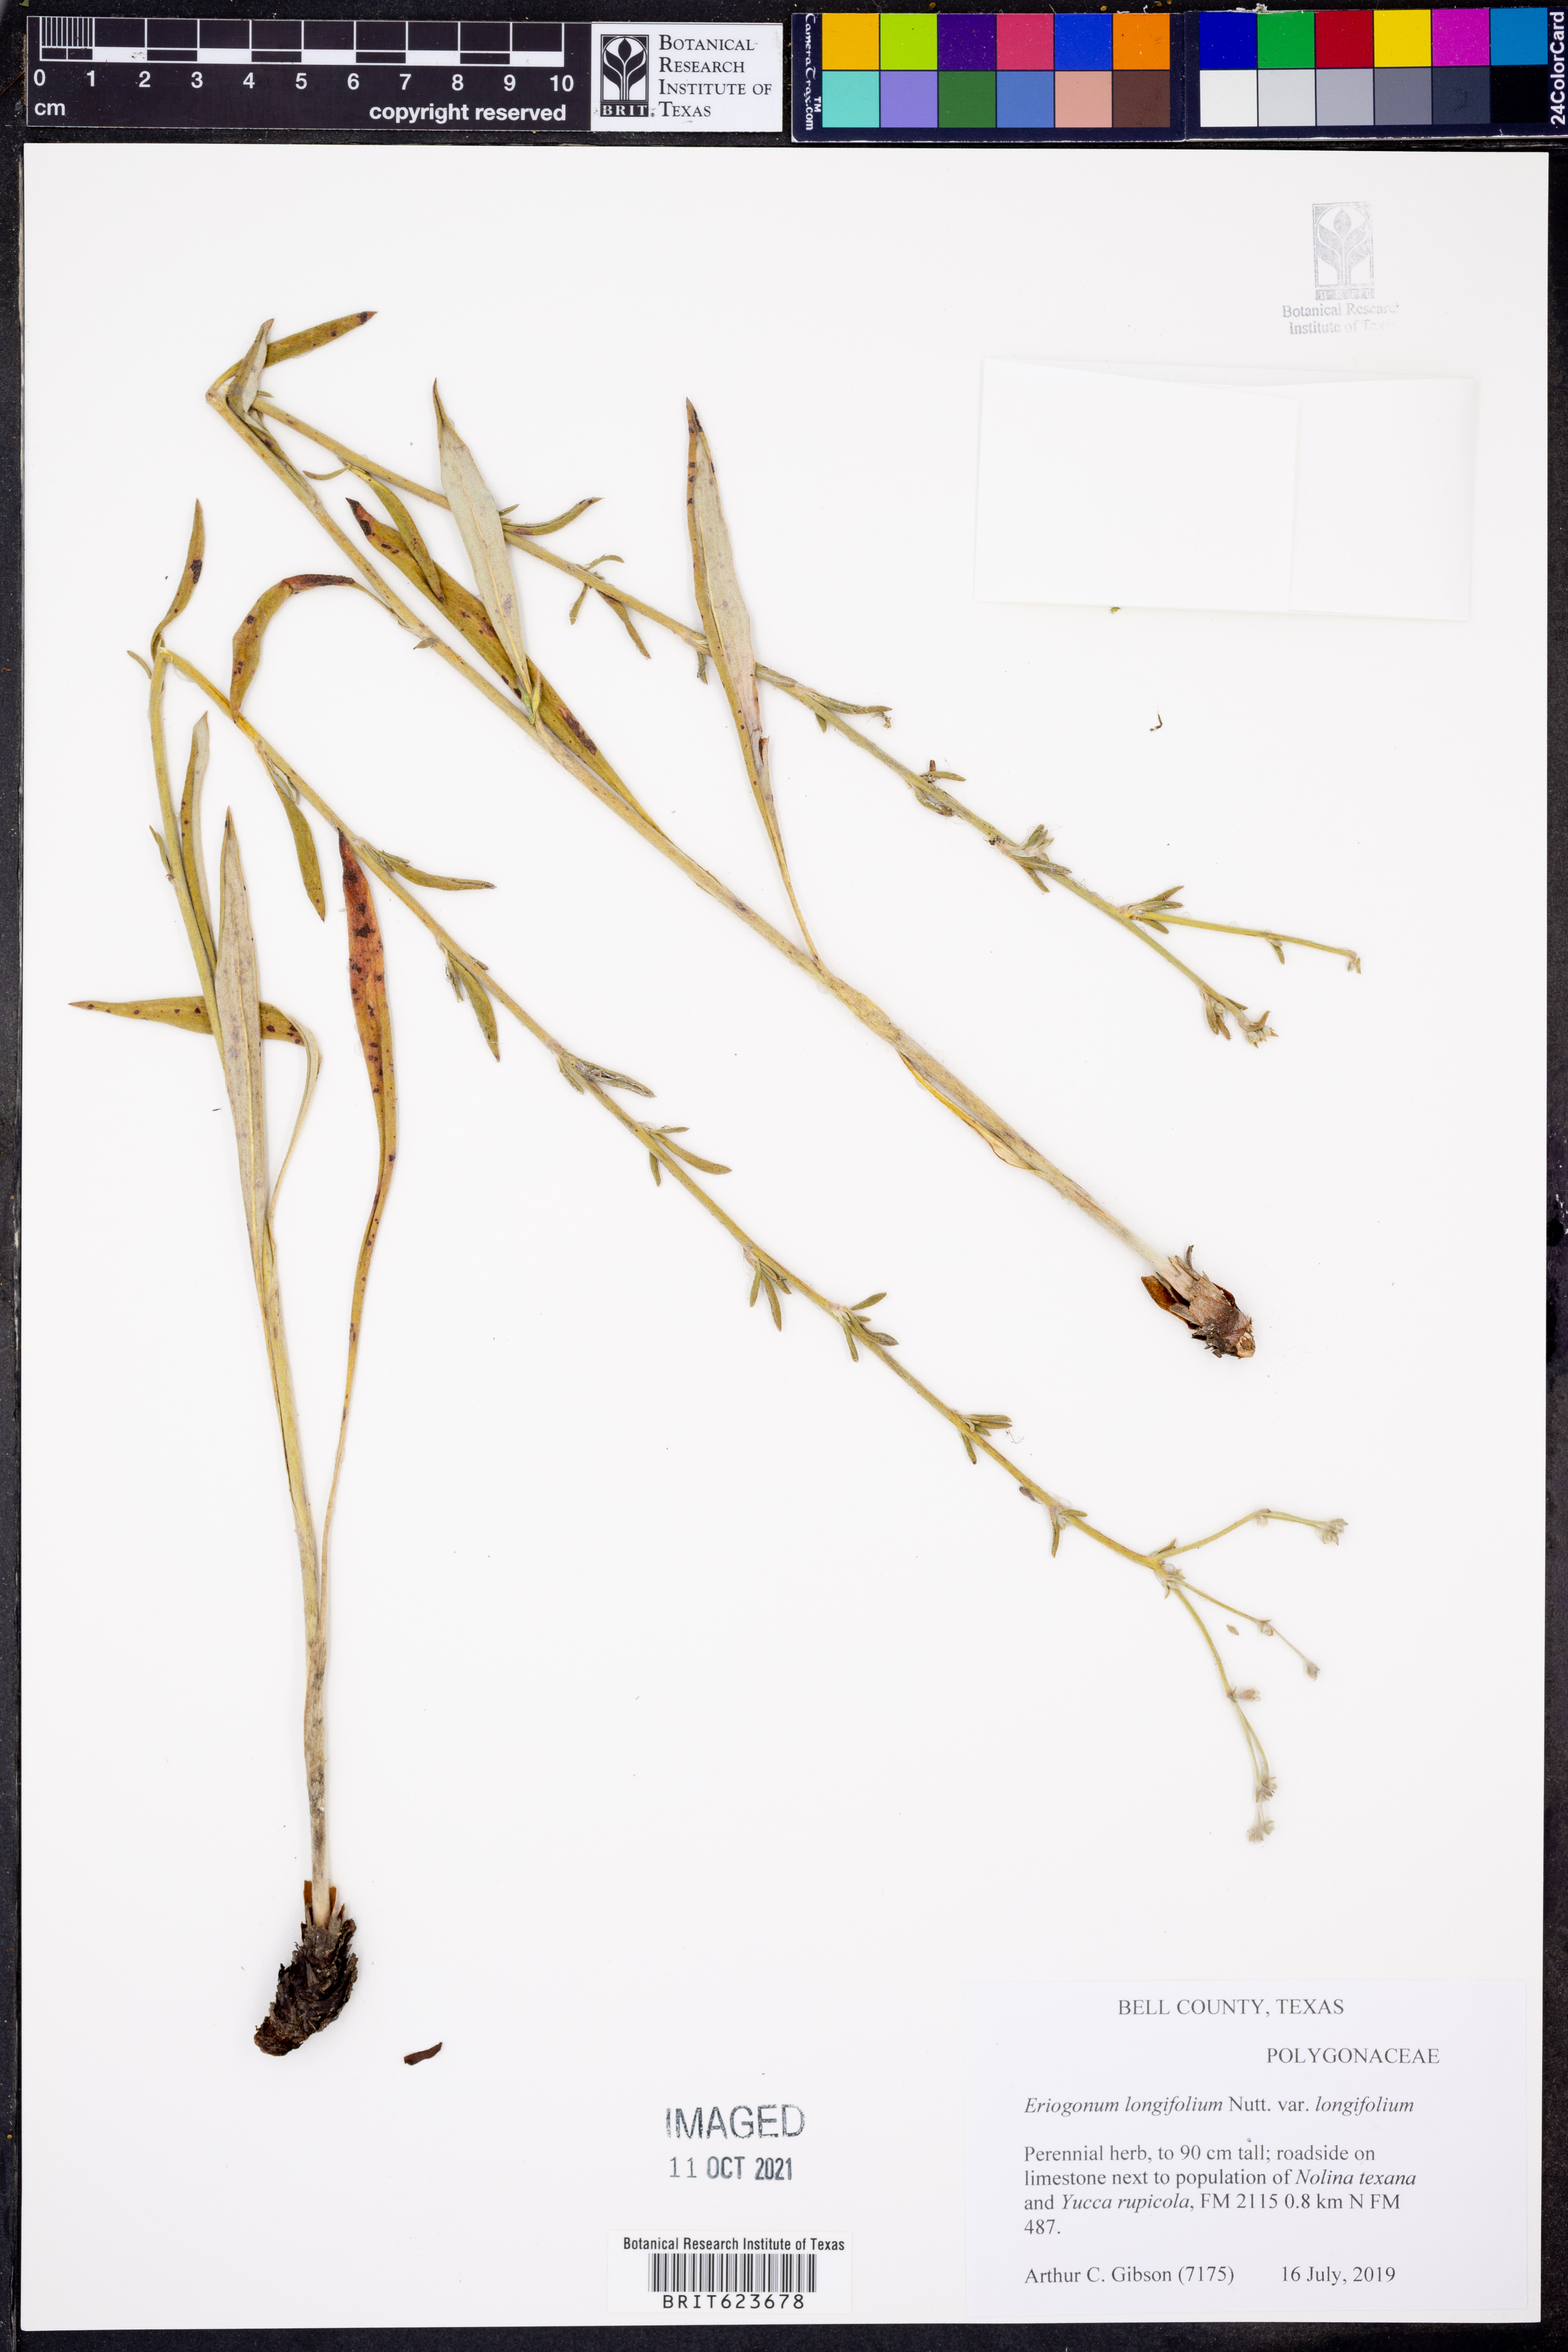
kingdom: Plantae
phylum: Tracheophyta
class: Magnoliopsida
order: Caryophyllales
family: Polygonaceae
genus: Eriogonum
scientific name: Eriogonum longifolium
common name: Longleaf wild buckwheat
